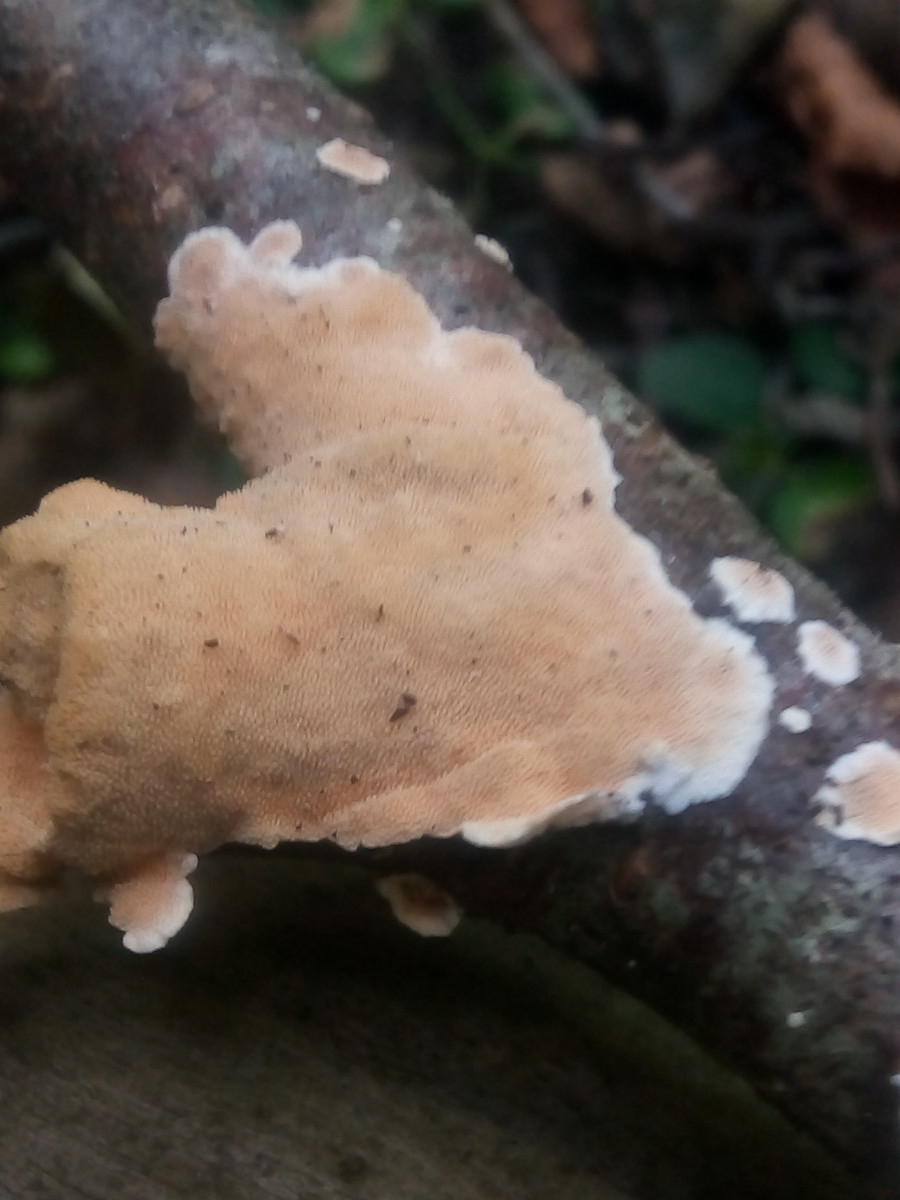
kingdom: Fungi
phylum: Basidiomycota
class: Agaricomycetes
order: Polyporales
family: Steccherinaceae
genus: Steccherinum
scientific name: Steccherinum ochraceum
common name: almindelig skønpig
